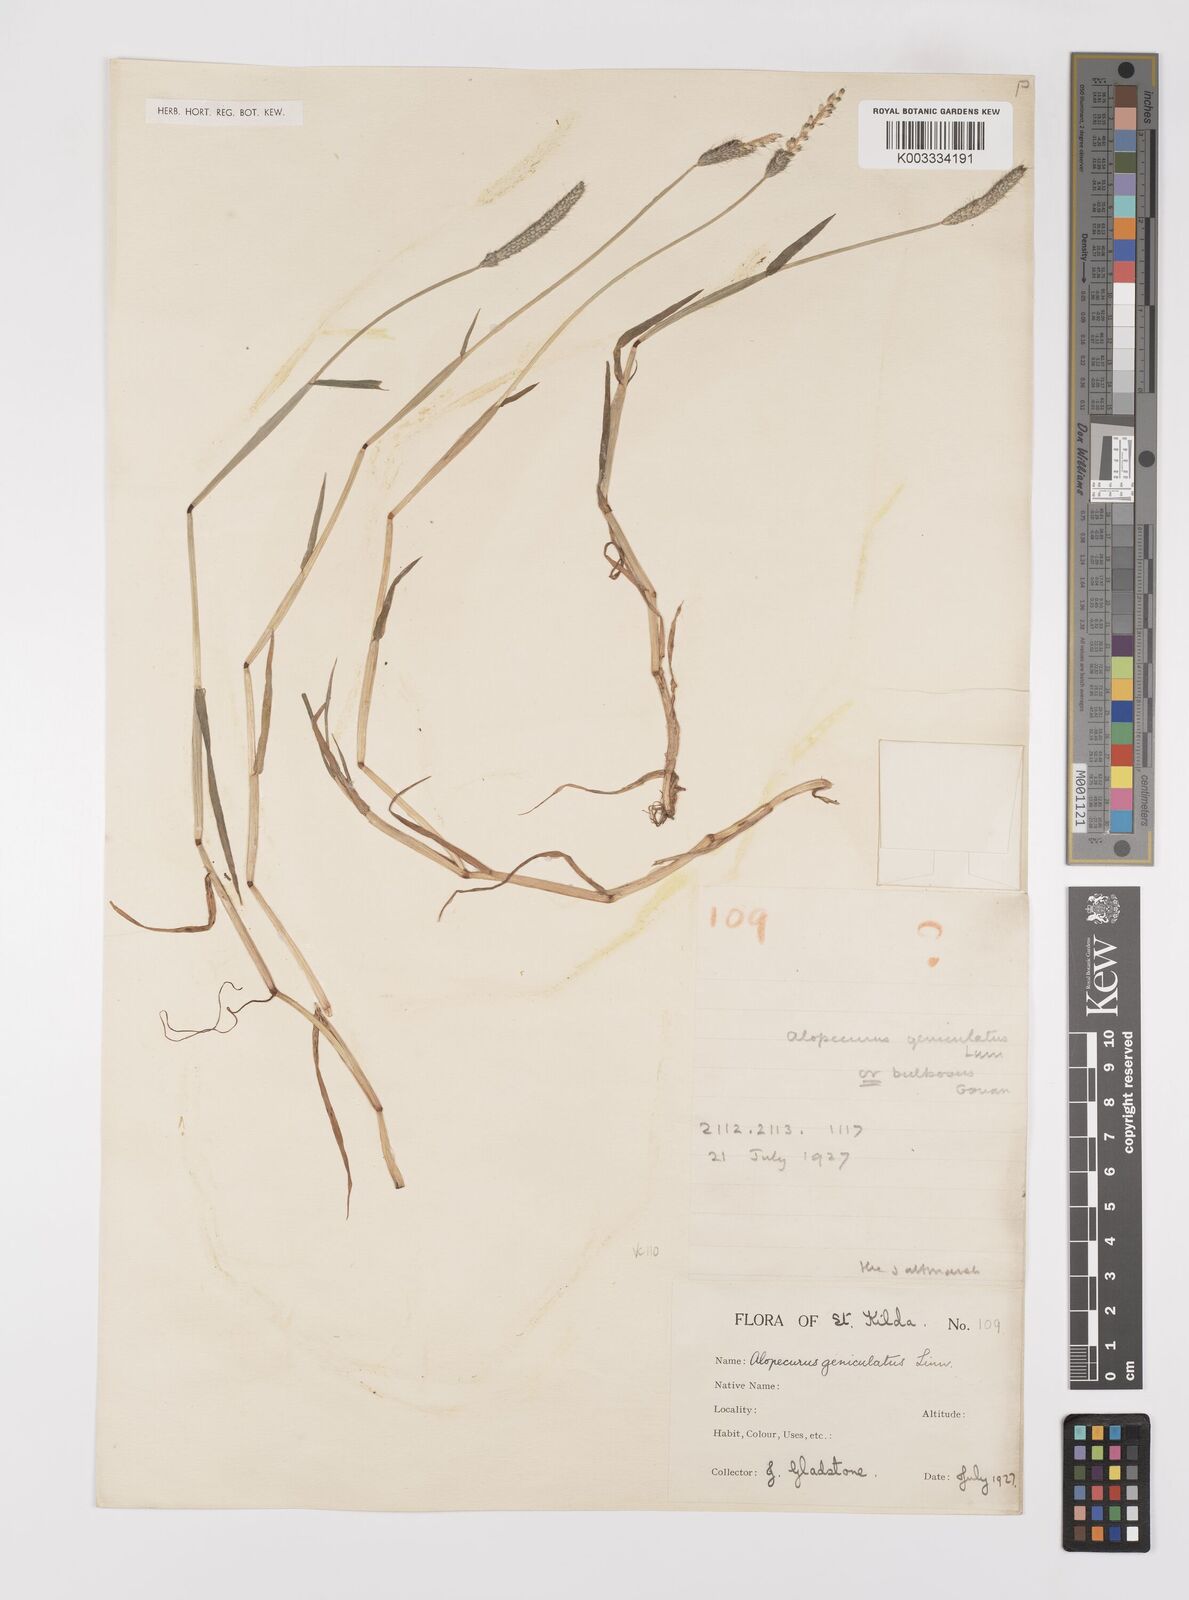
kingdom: Plantae
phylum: Tracheophyta
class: Liliopsida
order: Poales
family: Poaceae
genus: Alopecurus
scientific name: Alopecurus geniculatus
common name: Water foxtail
